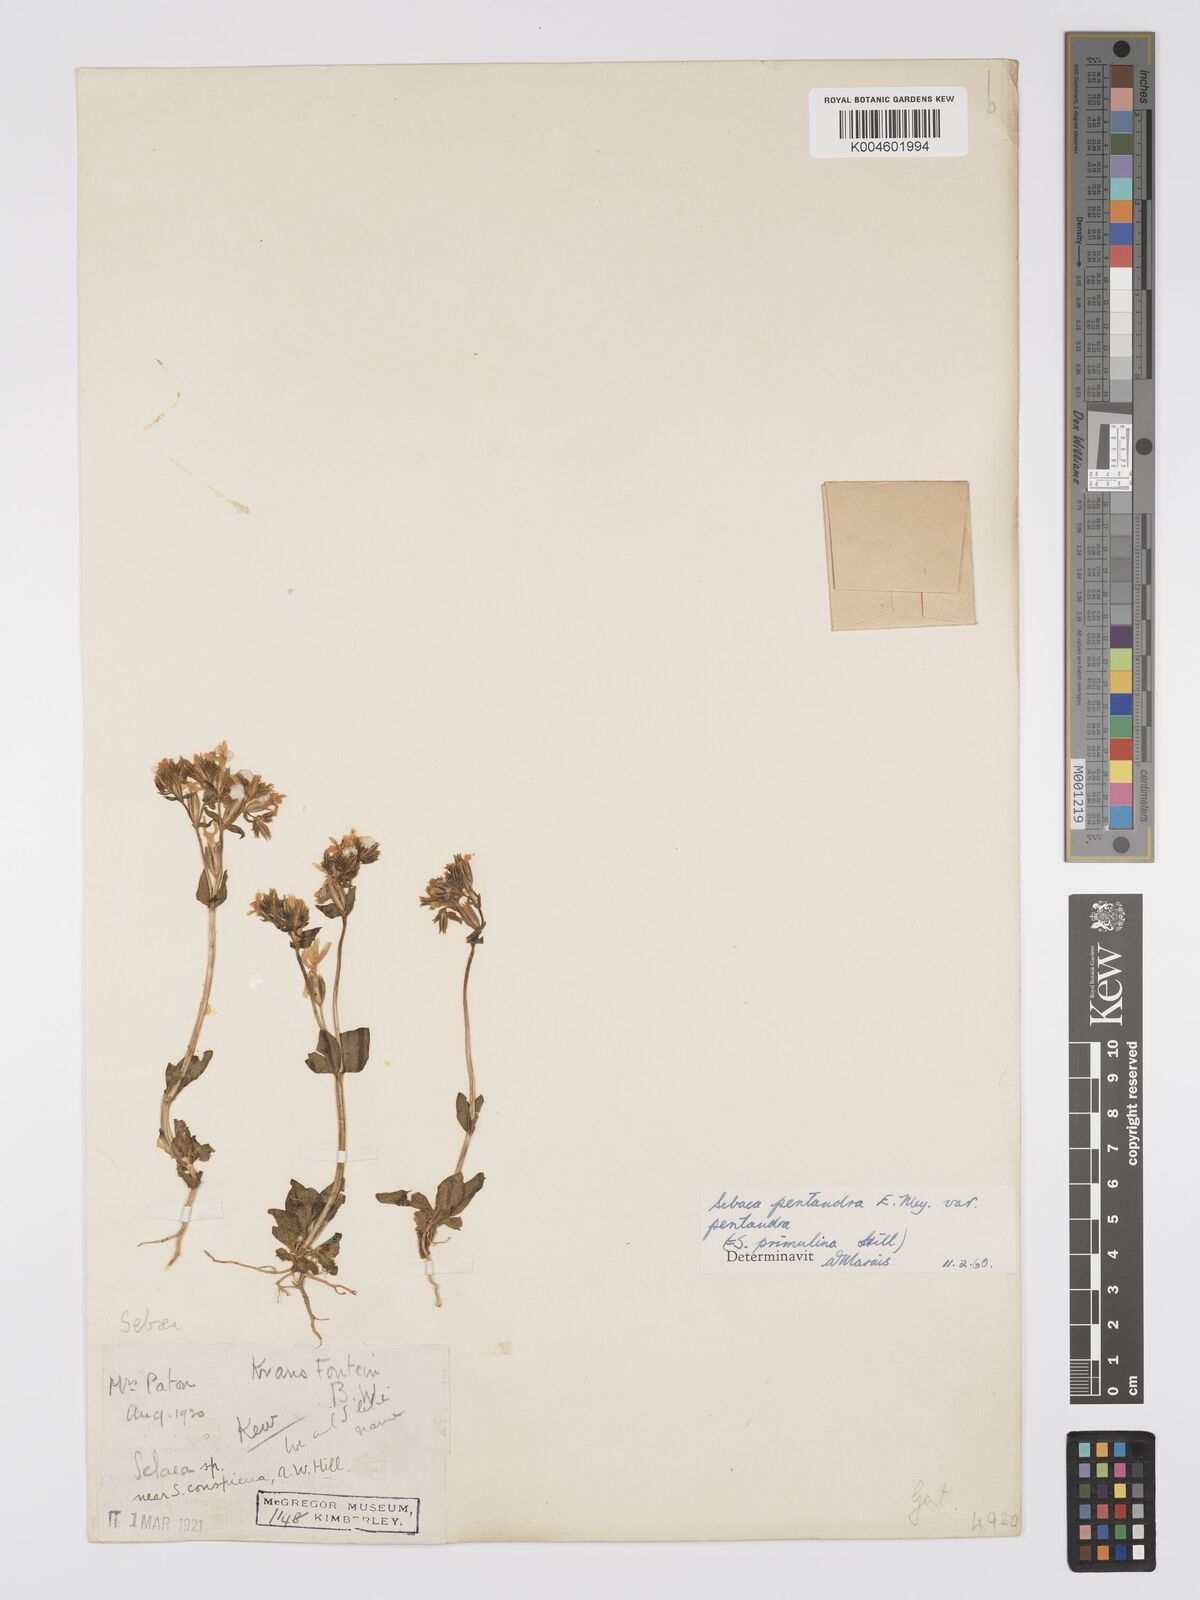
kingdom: Plantae
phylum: Tracheophyta
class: Magnoliopsida
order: Gentianales
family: Gentianaceae
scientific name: Gentianaceae
